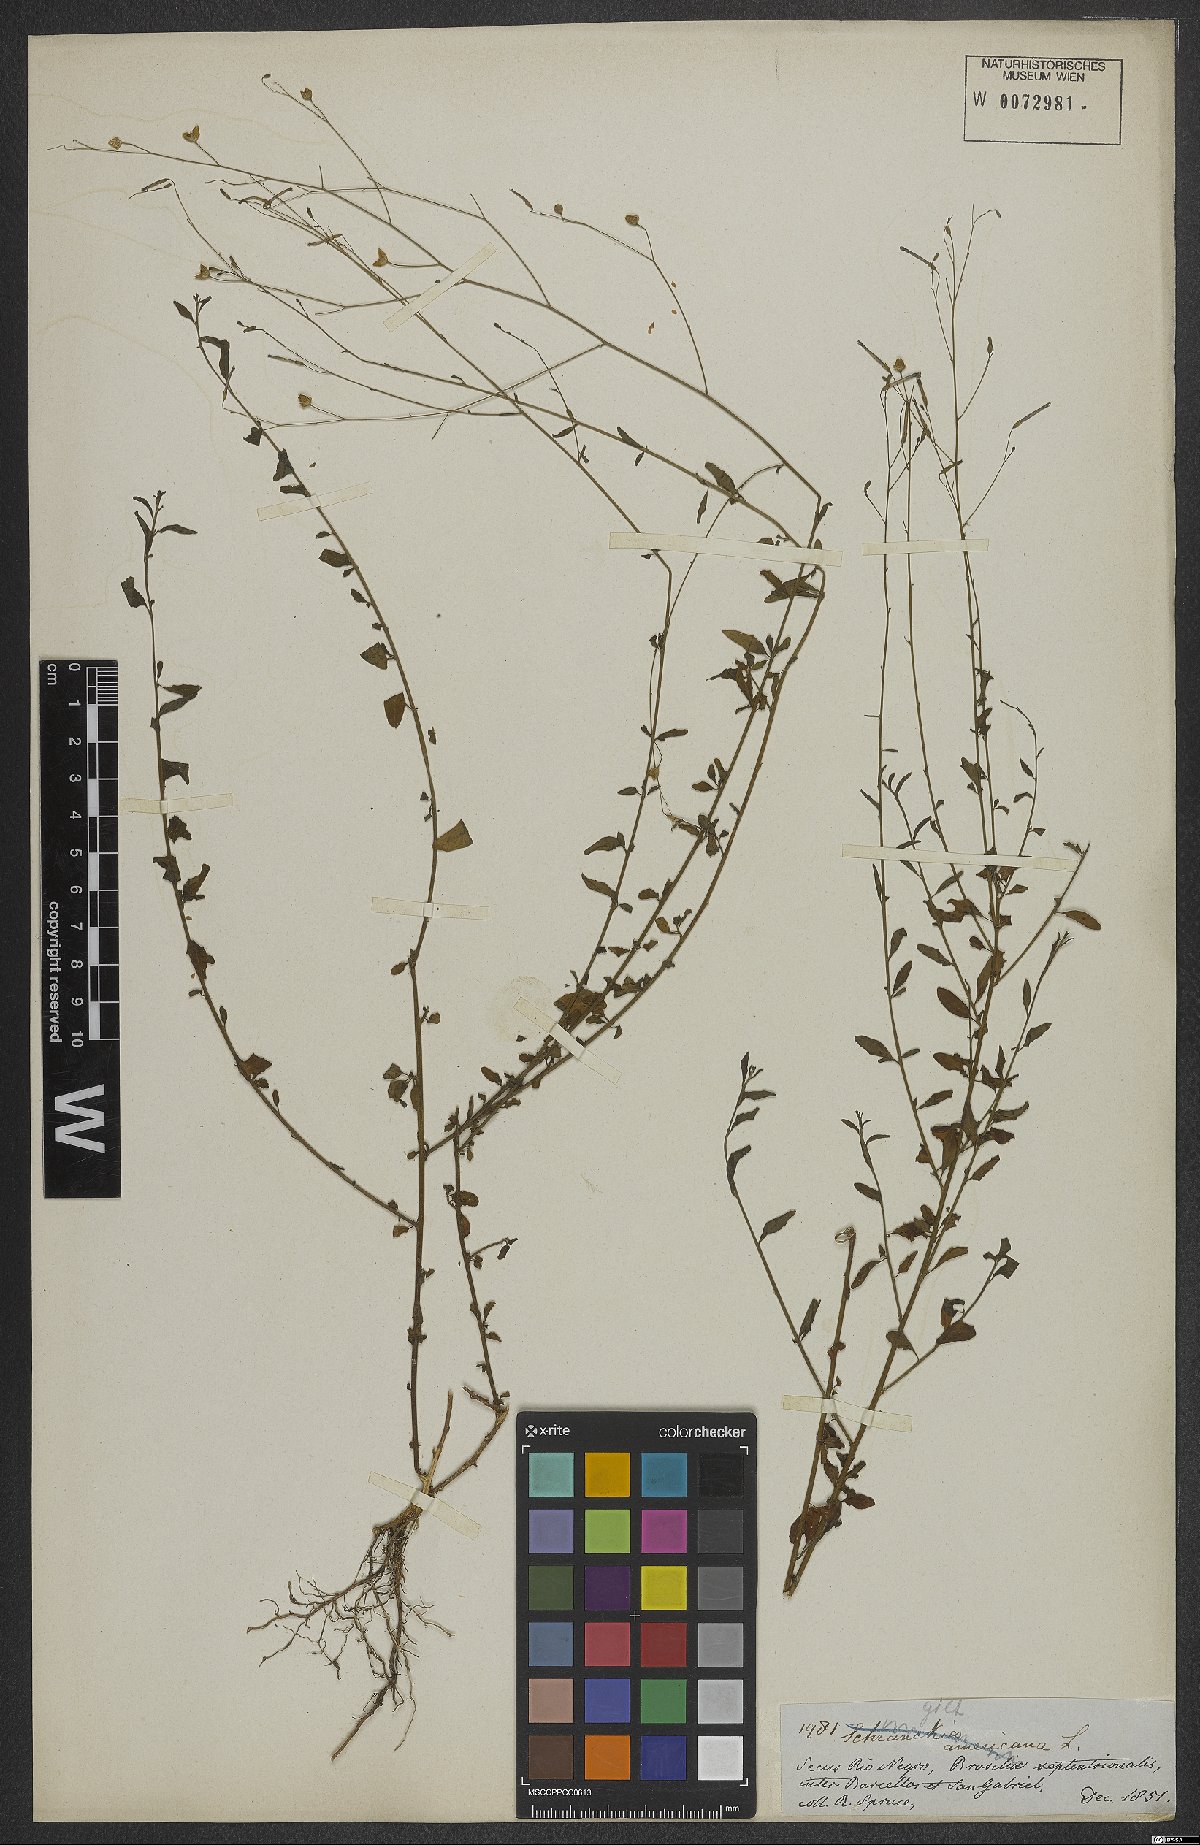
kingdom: Plantae
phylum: Tracheophyta
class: Magnoliopsida
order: Solanales
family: Solanaceae
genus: Schwenckia
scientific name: Schwenckia americana
